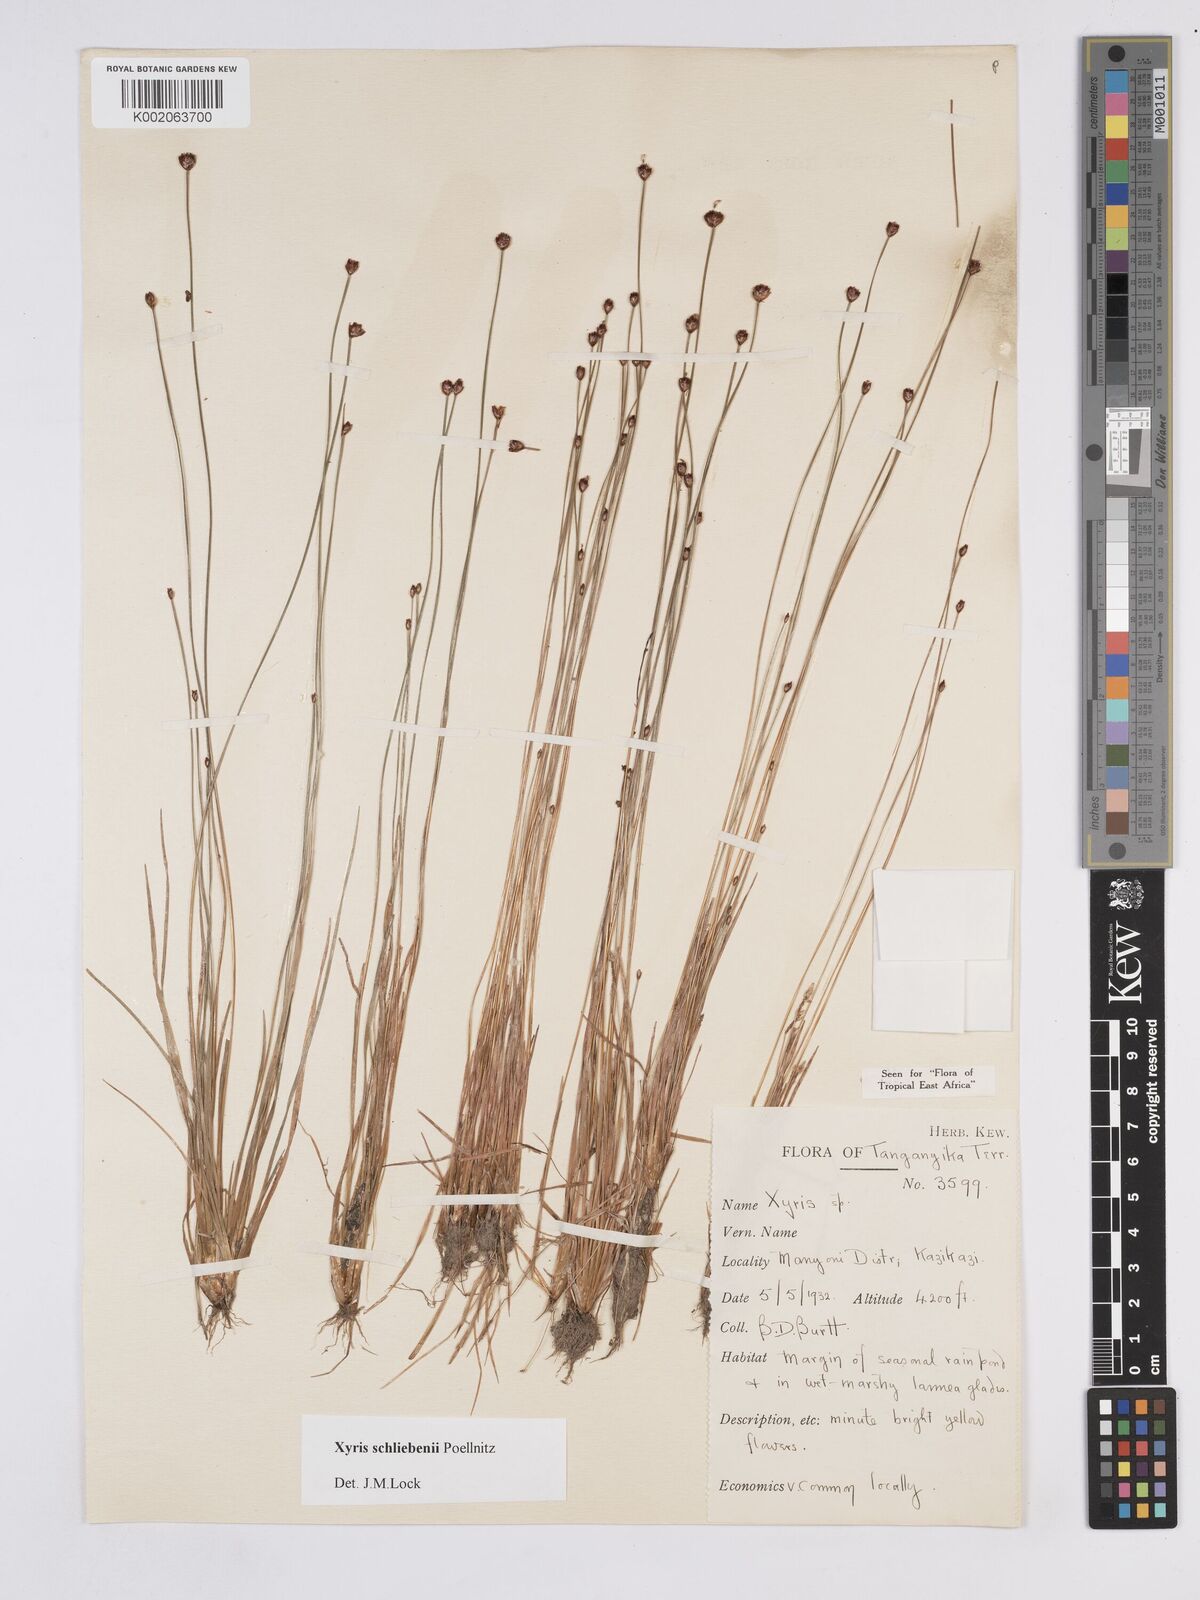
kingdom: Plantae
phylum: Tracheophyta
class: Liliopsida
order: Poales
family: Xyridaceae
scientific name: Xyridaceae
